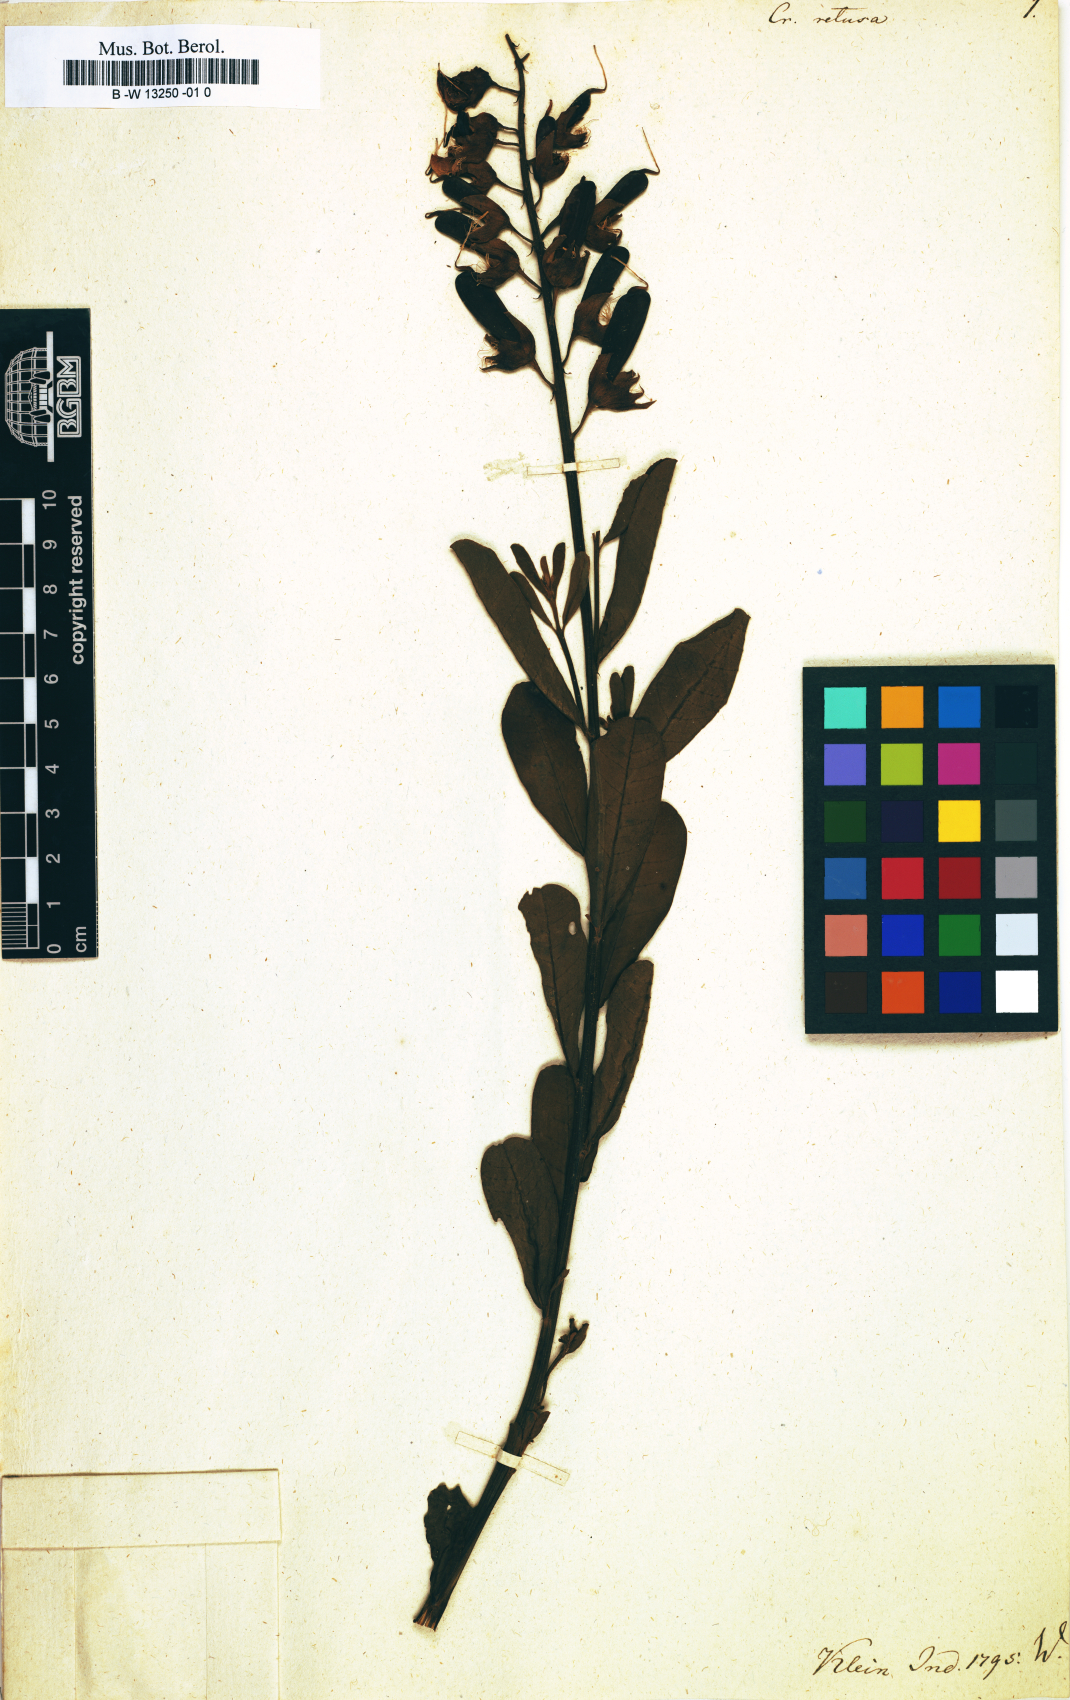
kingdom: Plantae
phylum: Tracheophyta
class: Magnoliopsida
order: Fabales
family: Fabaceae
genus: Crotalaria
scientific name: Crotalaria retusa
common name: Rattleweed
